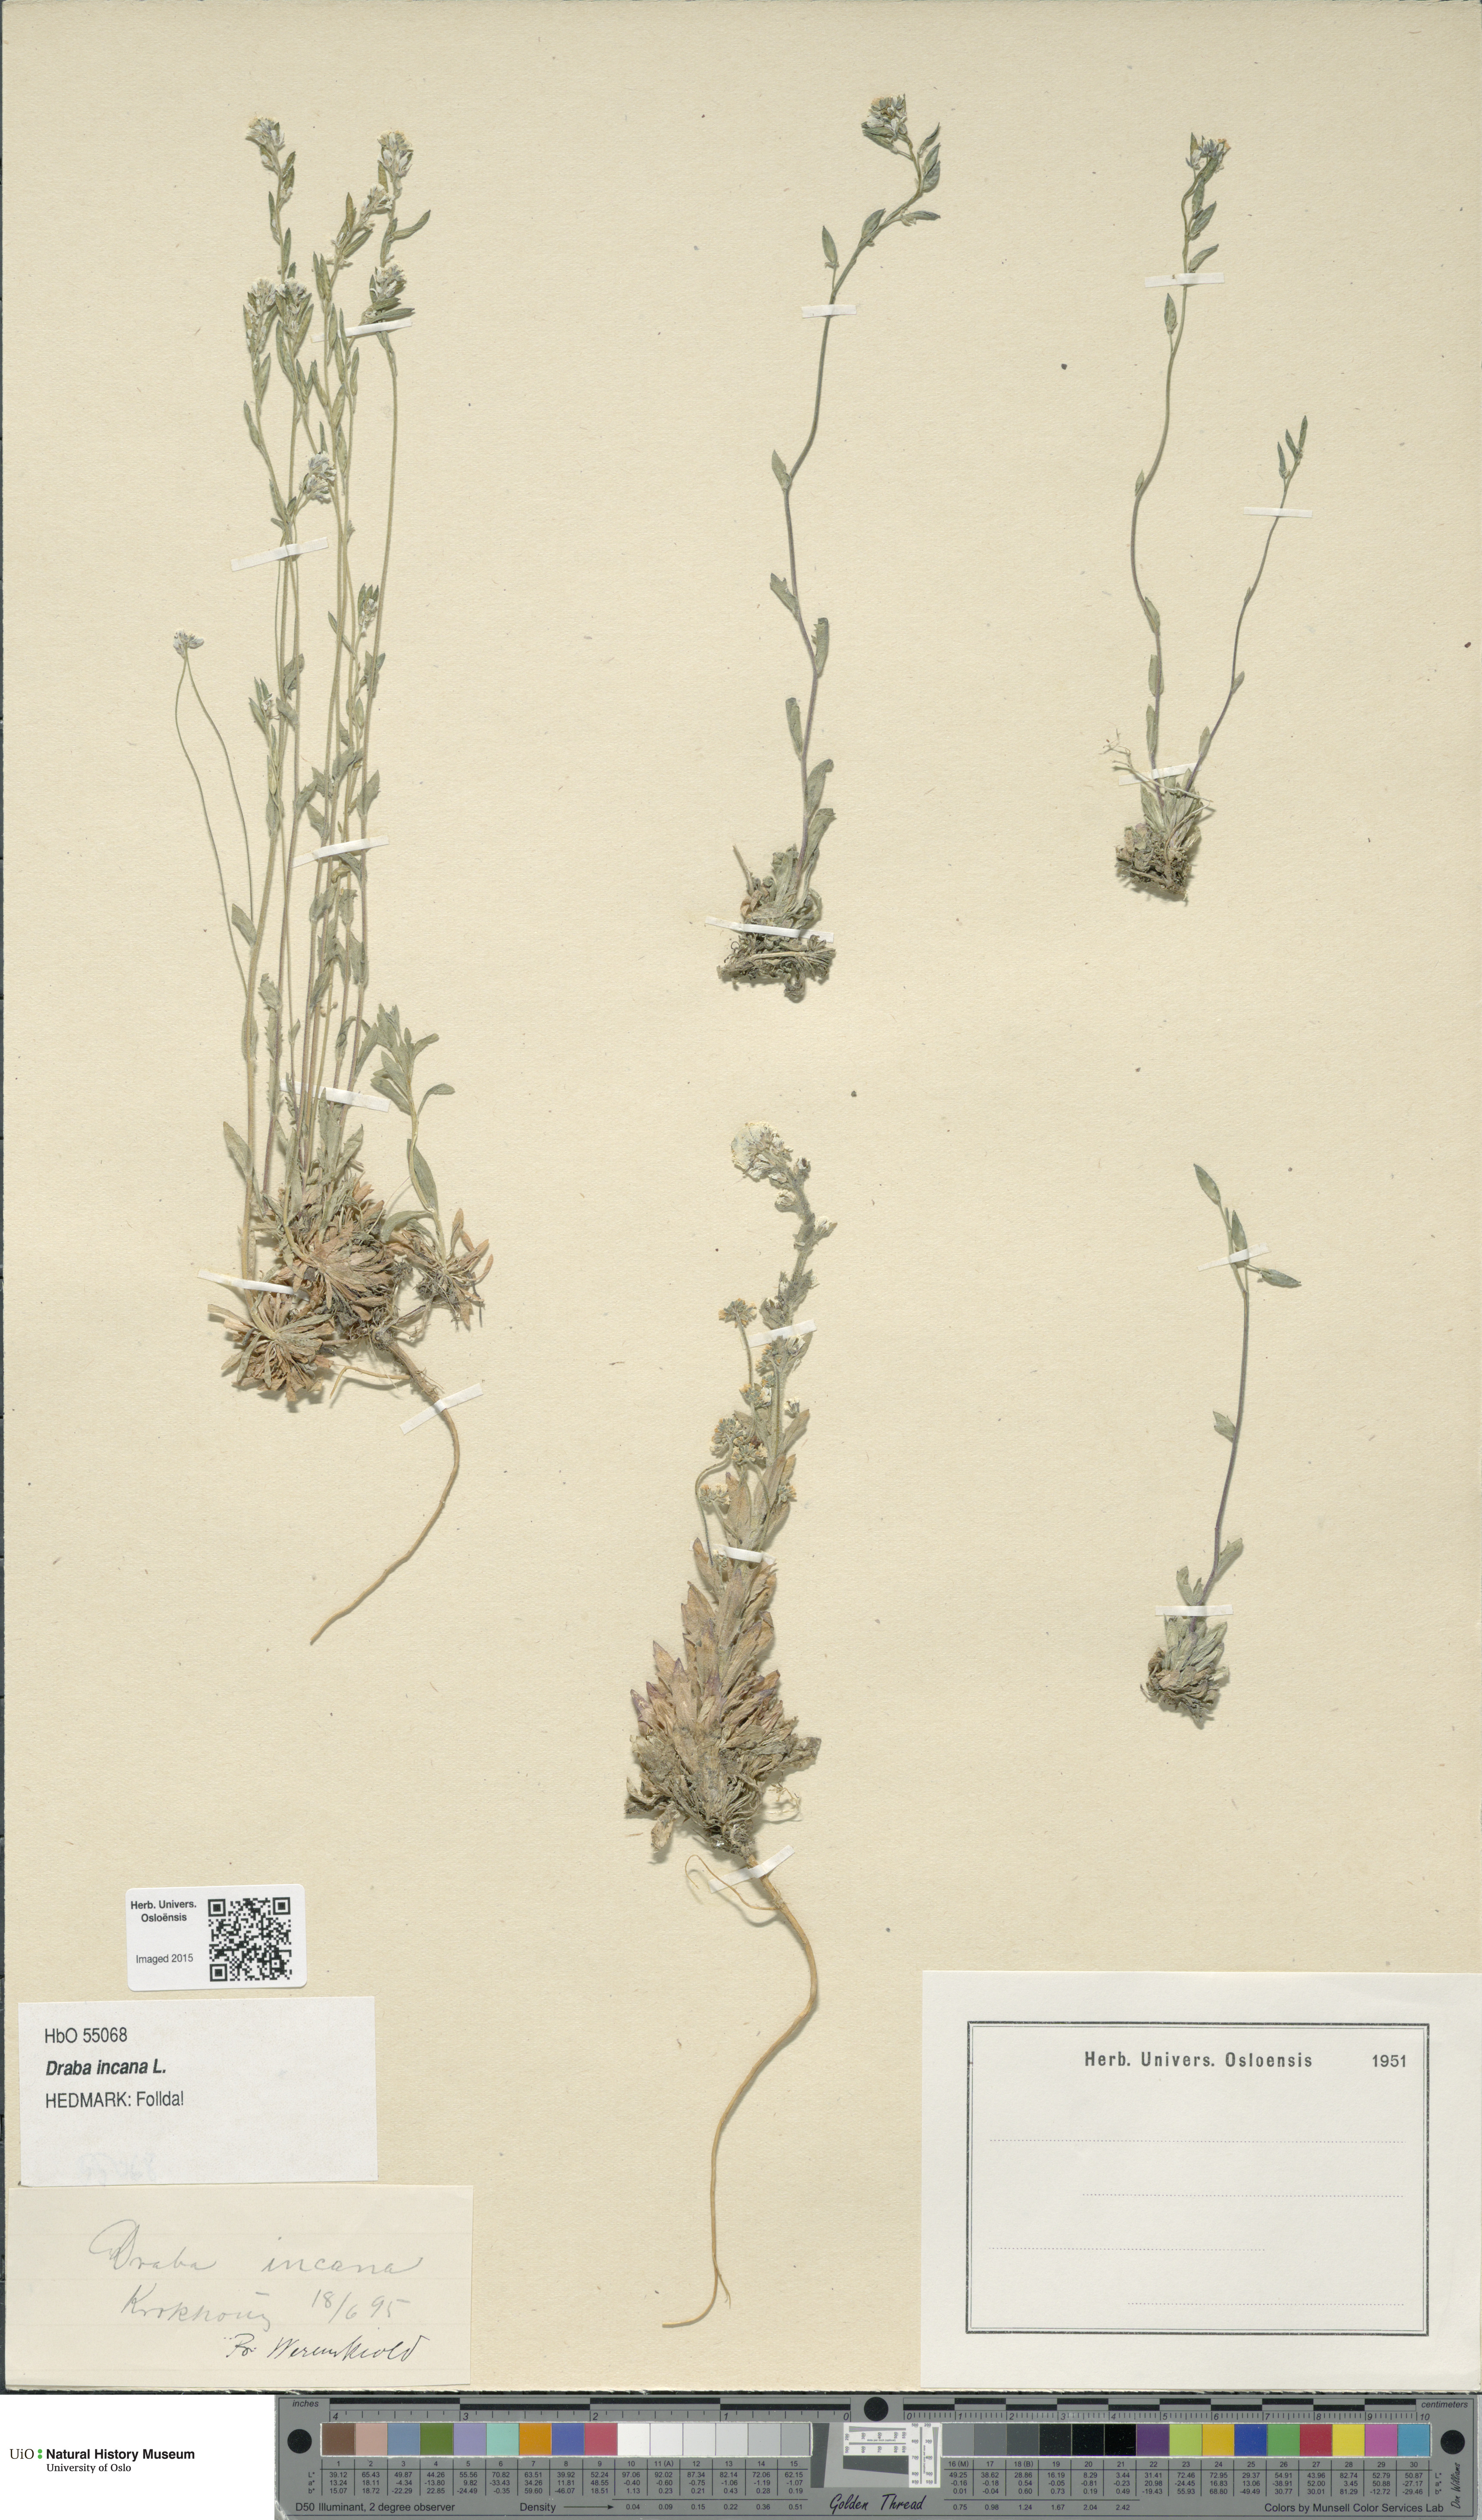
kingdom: Plantae
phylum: Tracheophyta
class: Magnoliopsida
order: Brassicales
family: Brassicaceae
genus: Draba
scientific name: Draba incana
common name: Hoary whitlow-grass
